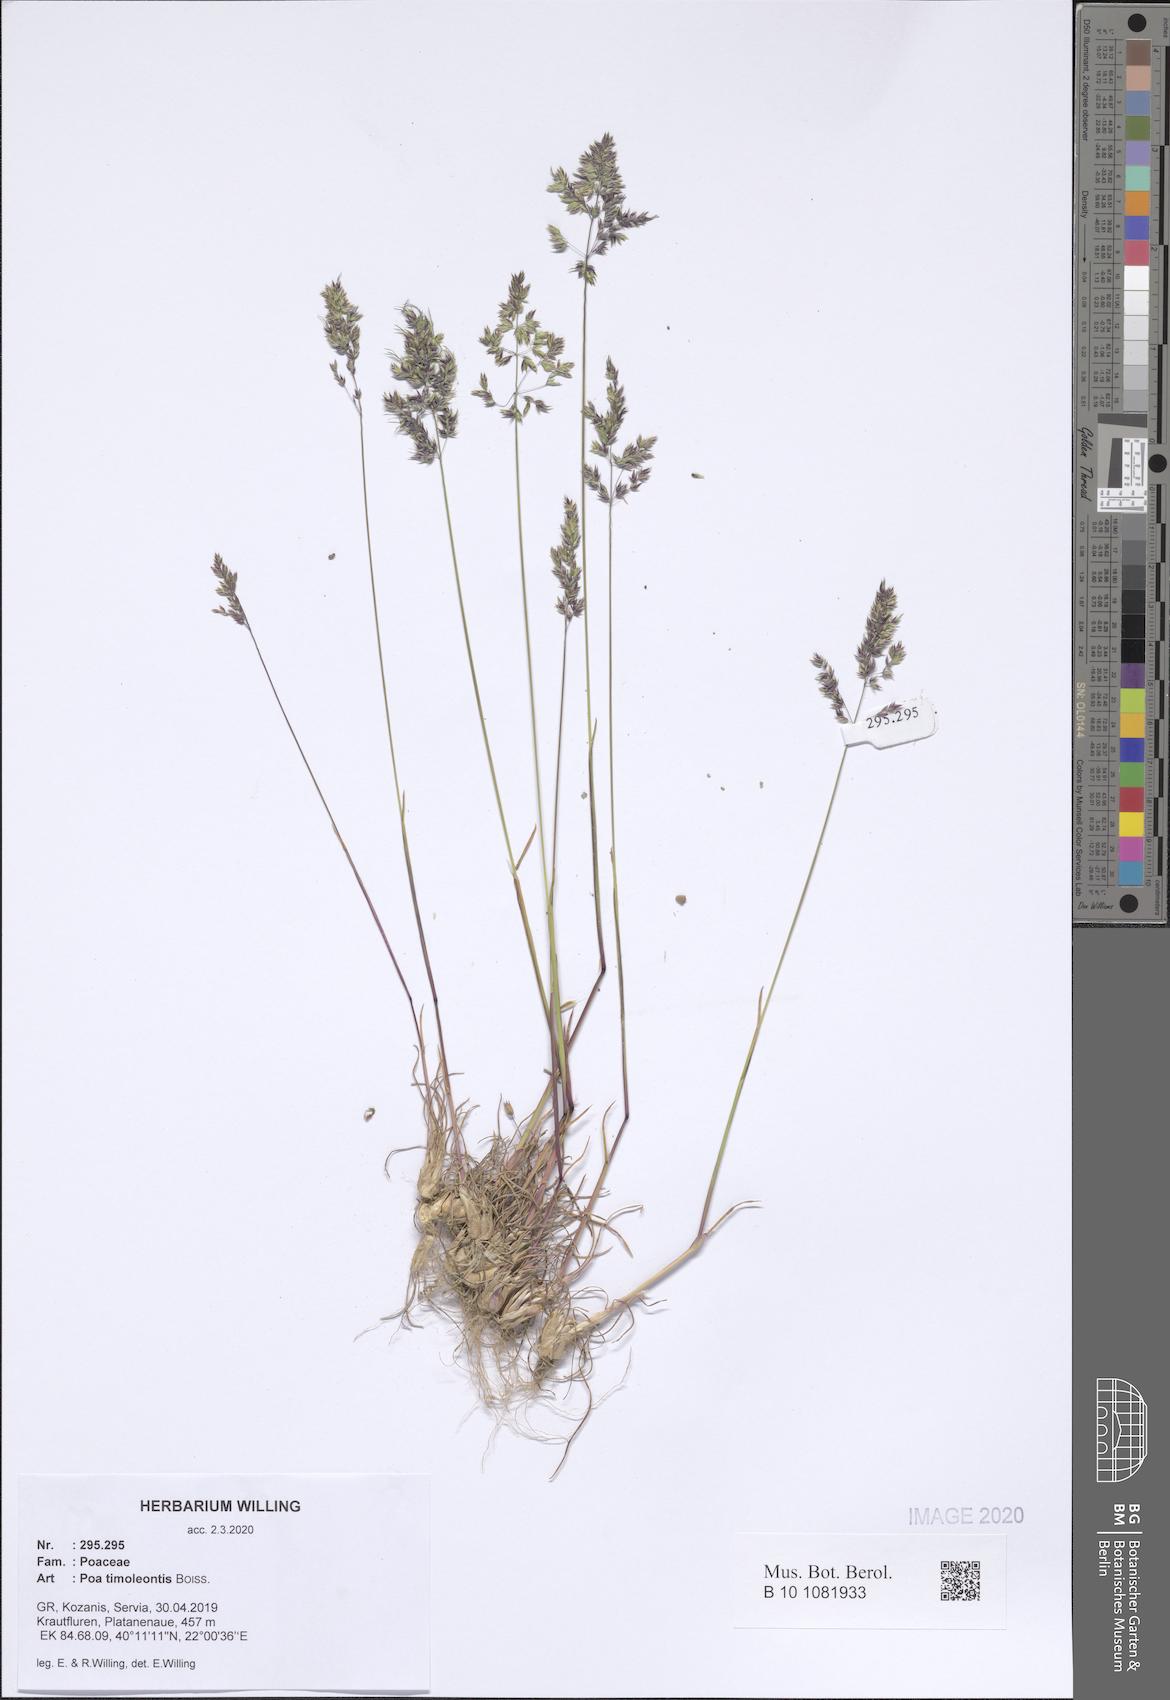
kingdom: Plantae
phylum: Tracheophyta
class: Liliopsida
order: Poales
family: Poaceae
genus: Poa
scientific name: Poa timoleontis
